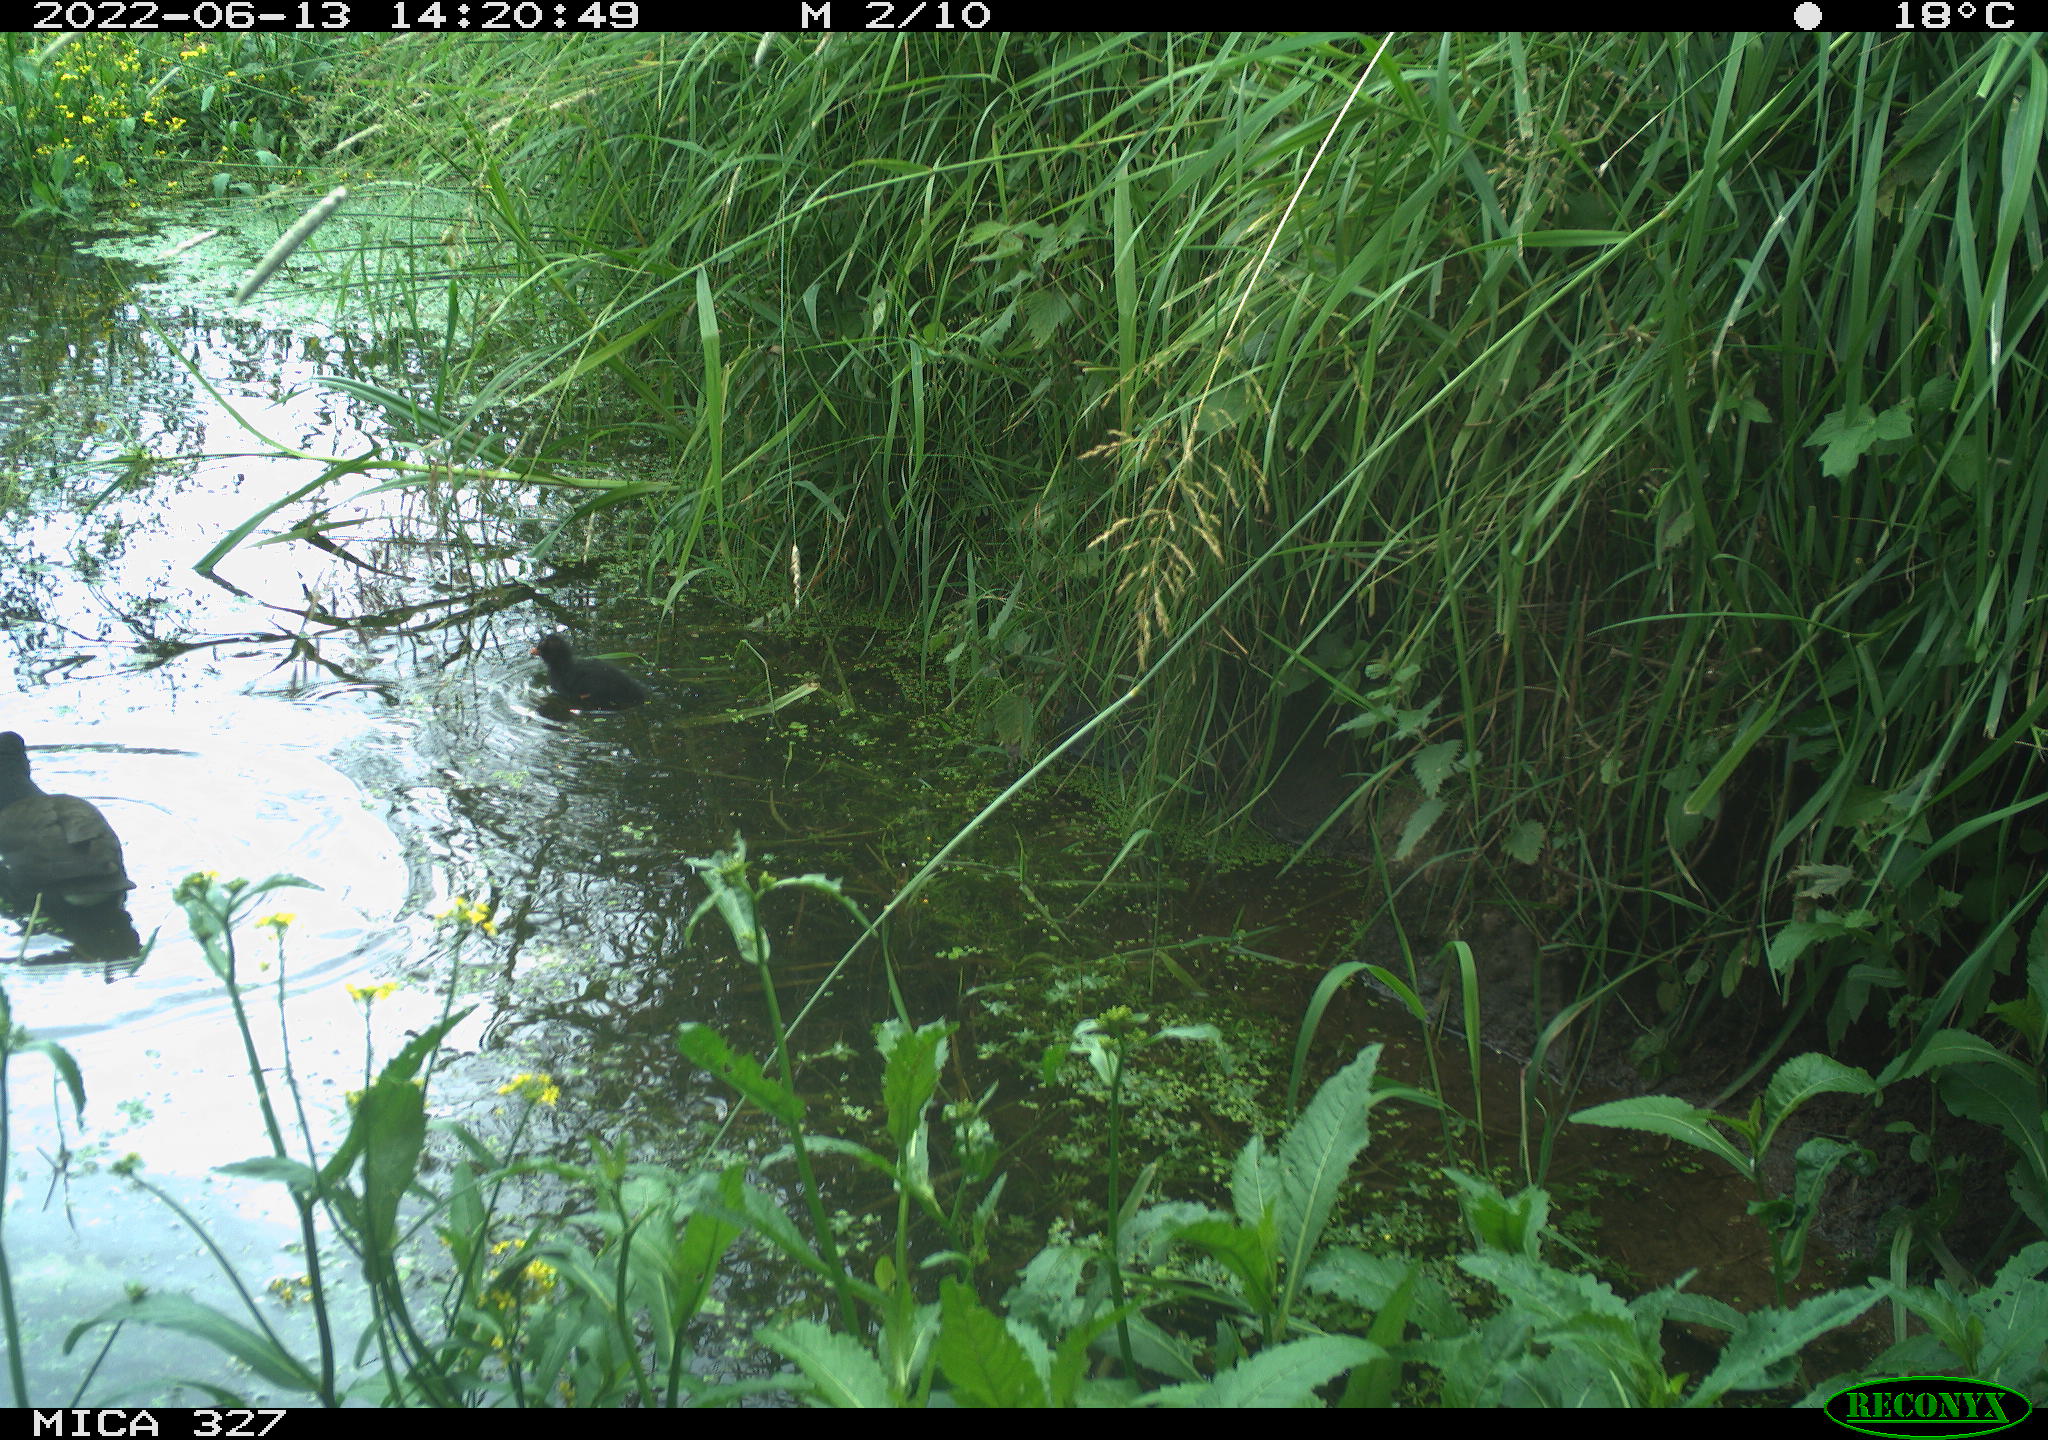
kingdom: Animalia
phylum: Chordata
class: Aves
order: Gruiformes
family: Rallidae
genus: Gallinula
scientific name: Gallinula chloropus
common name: Common moorhen
